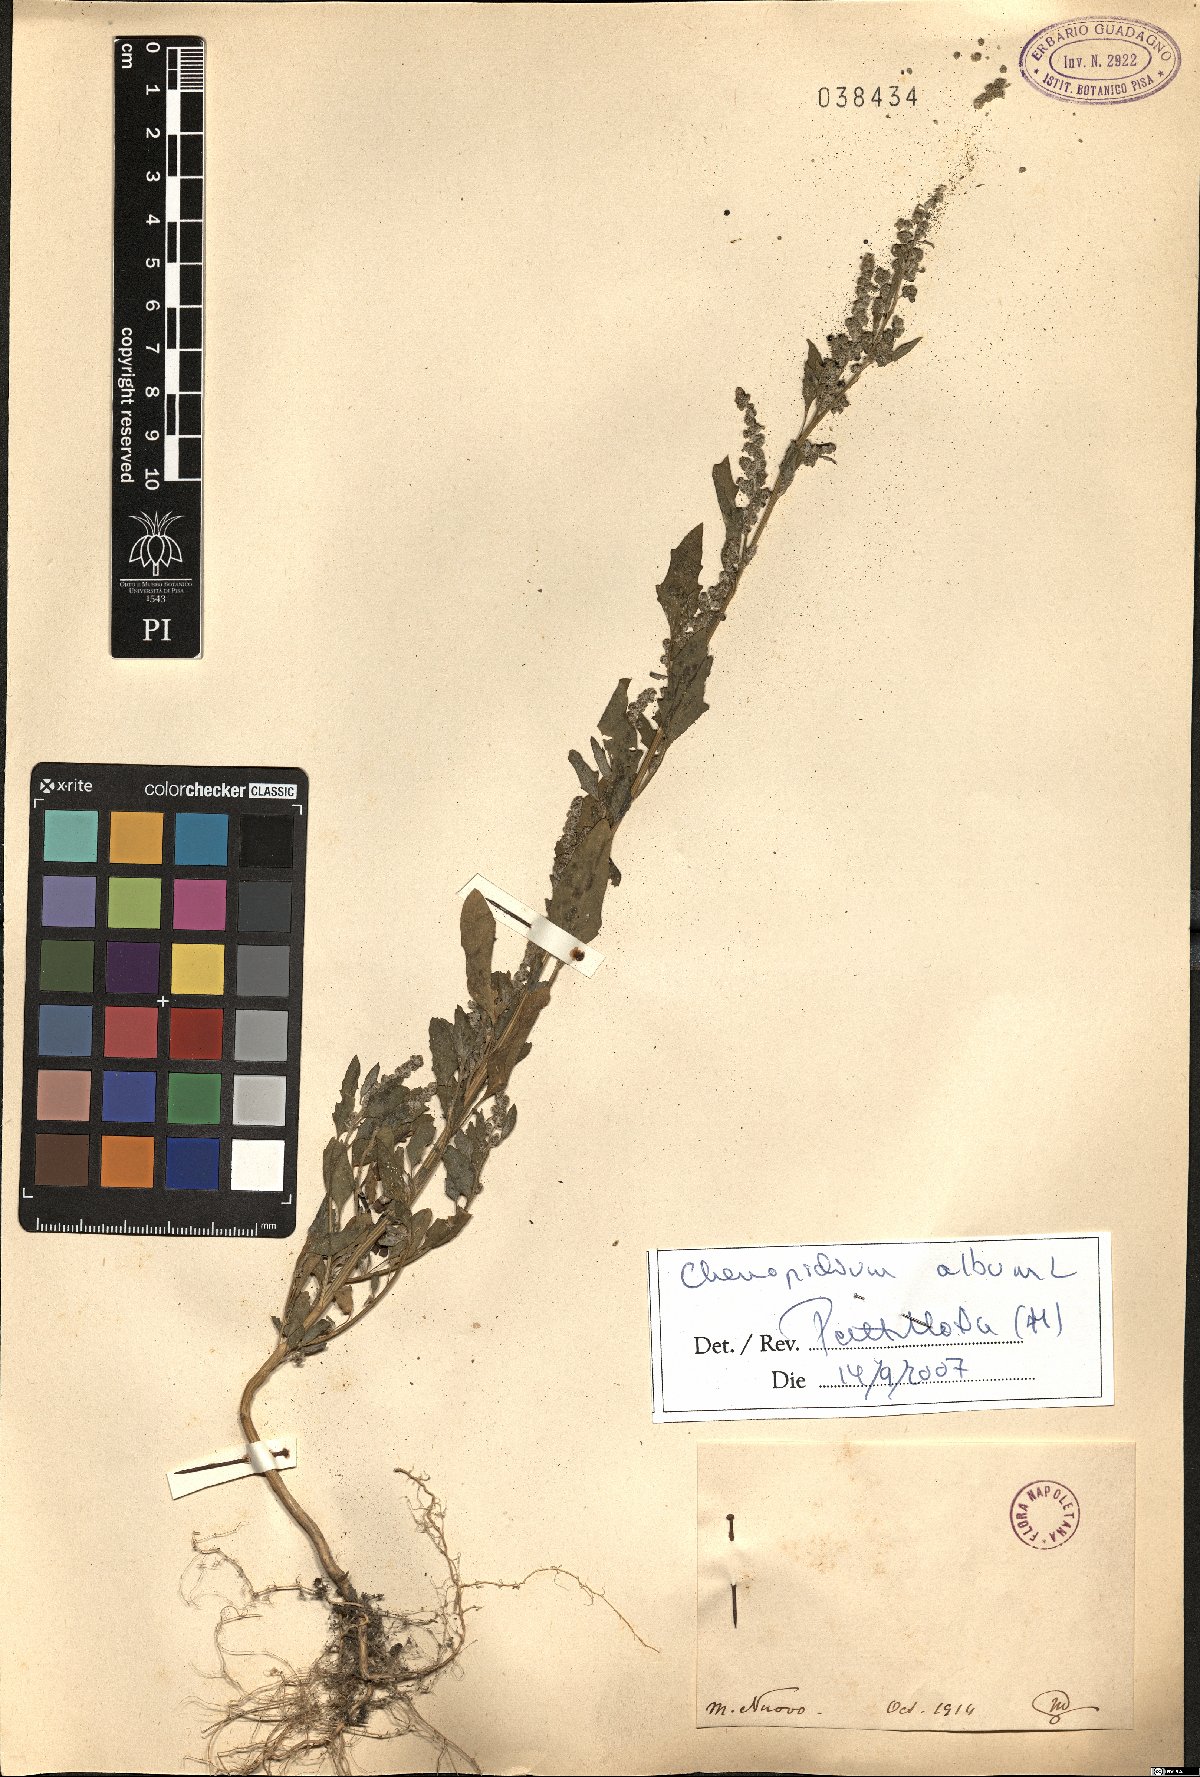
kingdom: Plantae
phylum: Tracheophyta
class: Magnoliopsida
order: Caryophyllales
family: Amaranthaceae
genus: Chenopodium
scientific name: Chenopodium album
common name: Fat-hen
